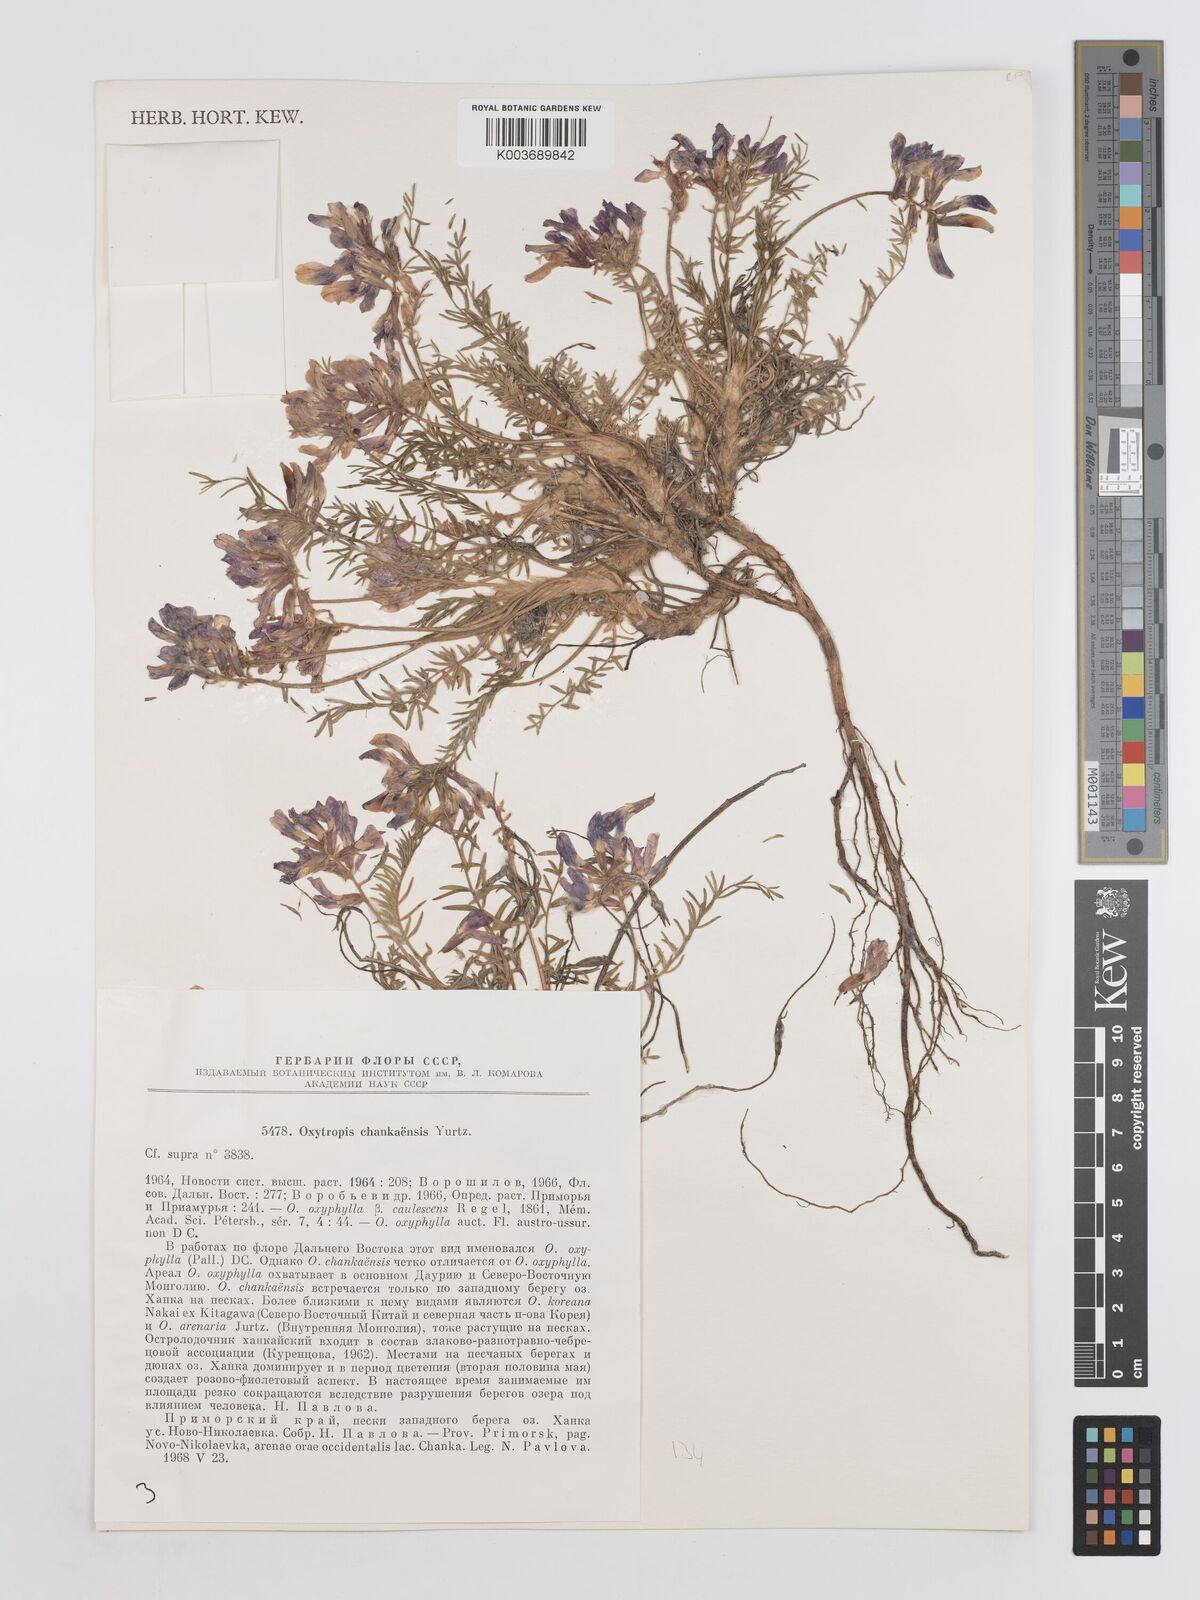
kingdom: Plantae
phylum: Tracheophyta
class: Magnoliopsida
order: Fabales
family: Fabaceae
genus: Oxytropis
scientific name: Oxytropis hailarensis
